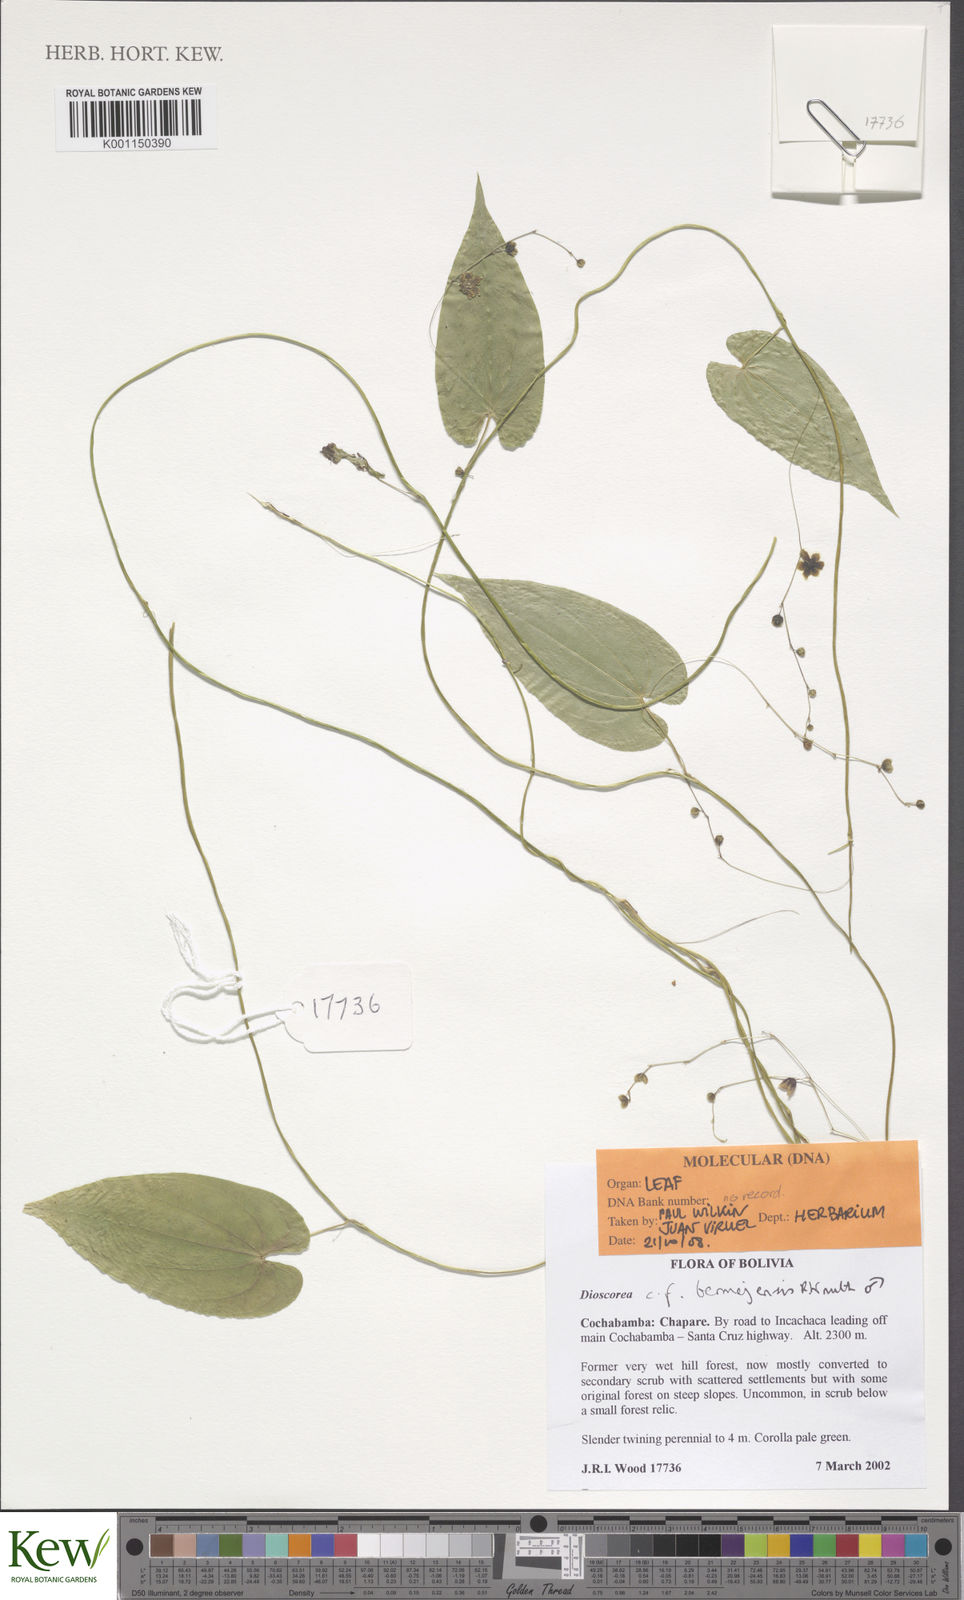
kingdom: Plantae
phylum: Tracheophyta
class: Liliopsida
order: Dioscoreales
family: Dioscoreaceae
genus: Dioscorea
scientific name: Dioscorea
